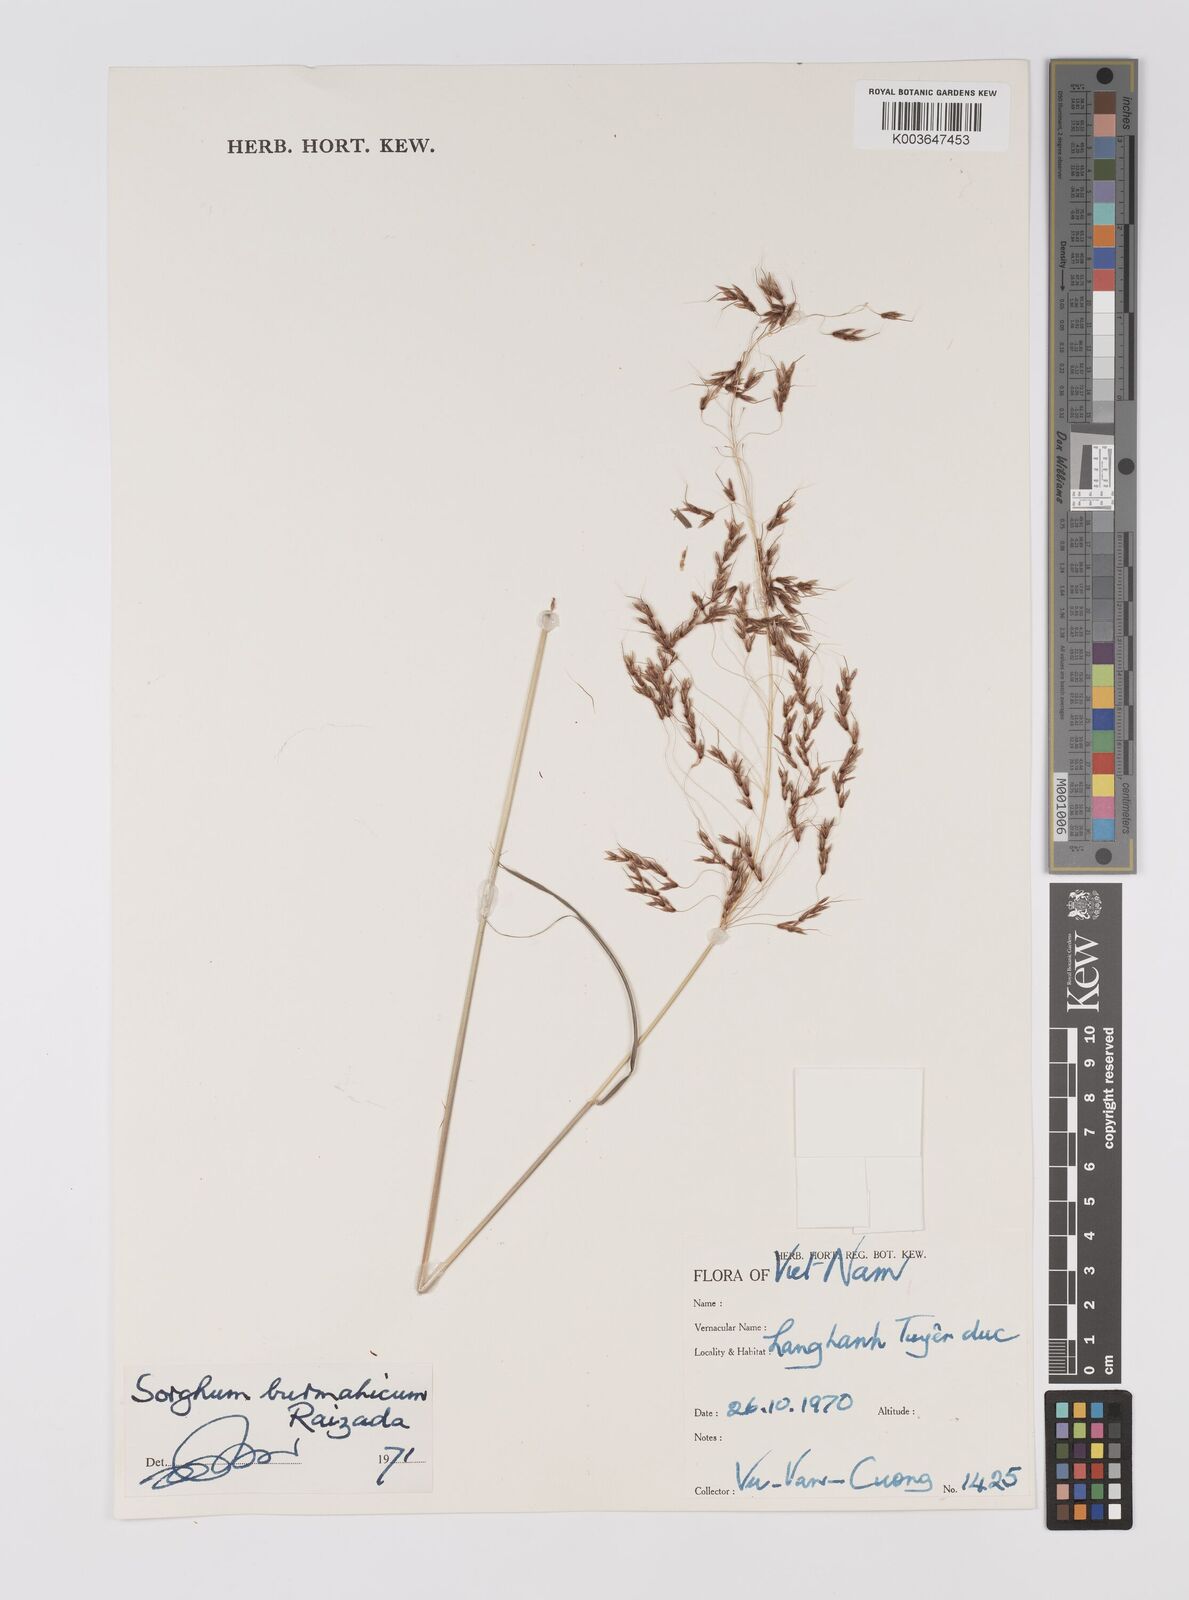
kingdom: Plantae
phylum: Tracheophyta
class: Liliopsida
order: Poales
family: Poaceae
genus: Sorghum
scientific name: Sorghum nitidum
